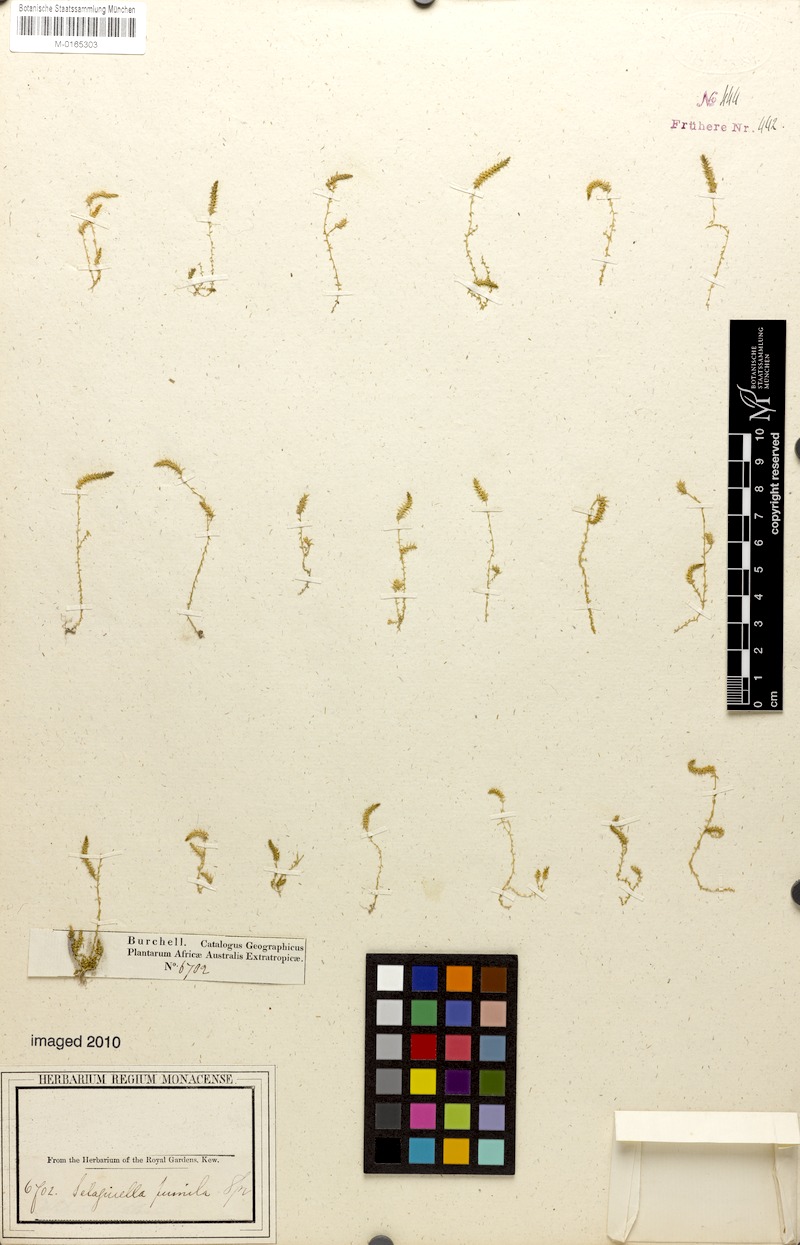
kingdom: Plantae
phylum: Tracheophyta
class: Lycopodiopsida
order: Selaginellales
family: Selaginellaceae
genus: Selaginella
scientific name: Selaginella pygmaea
